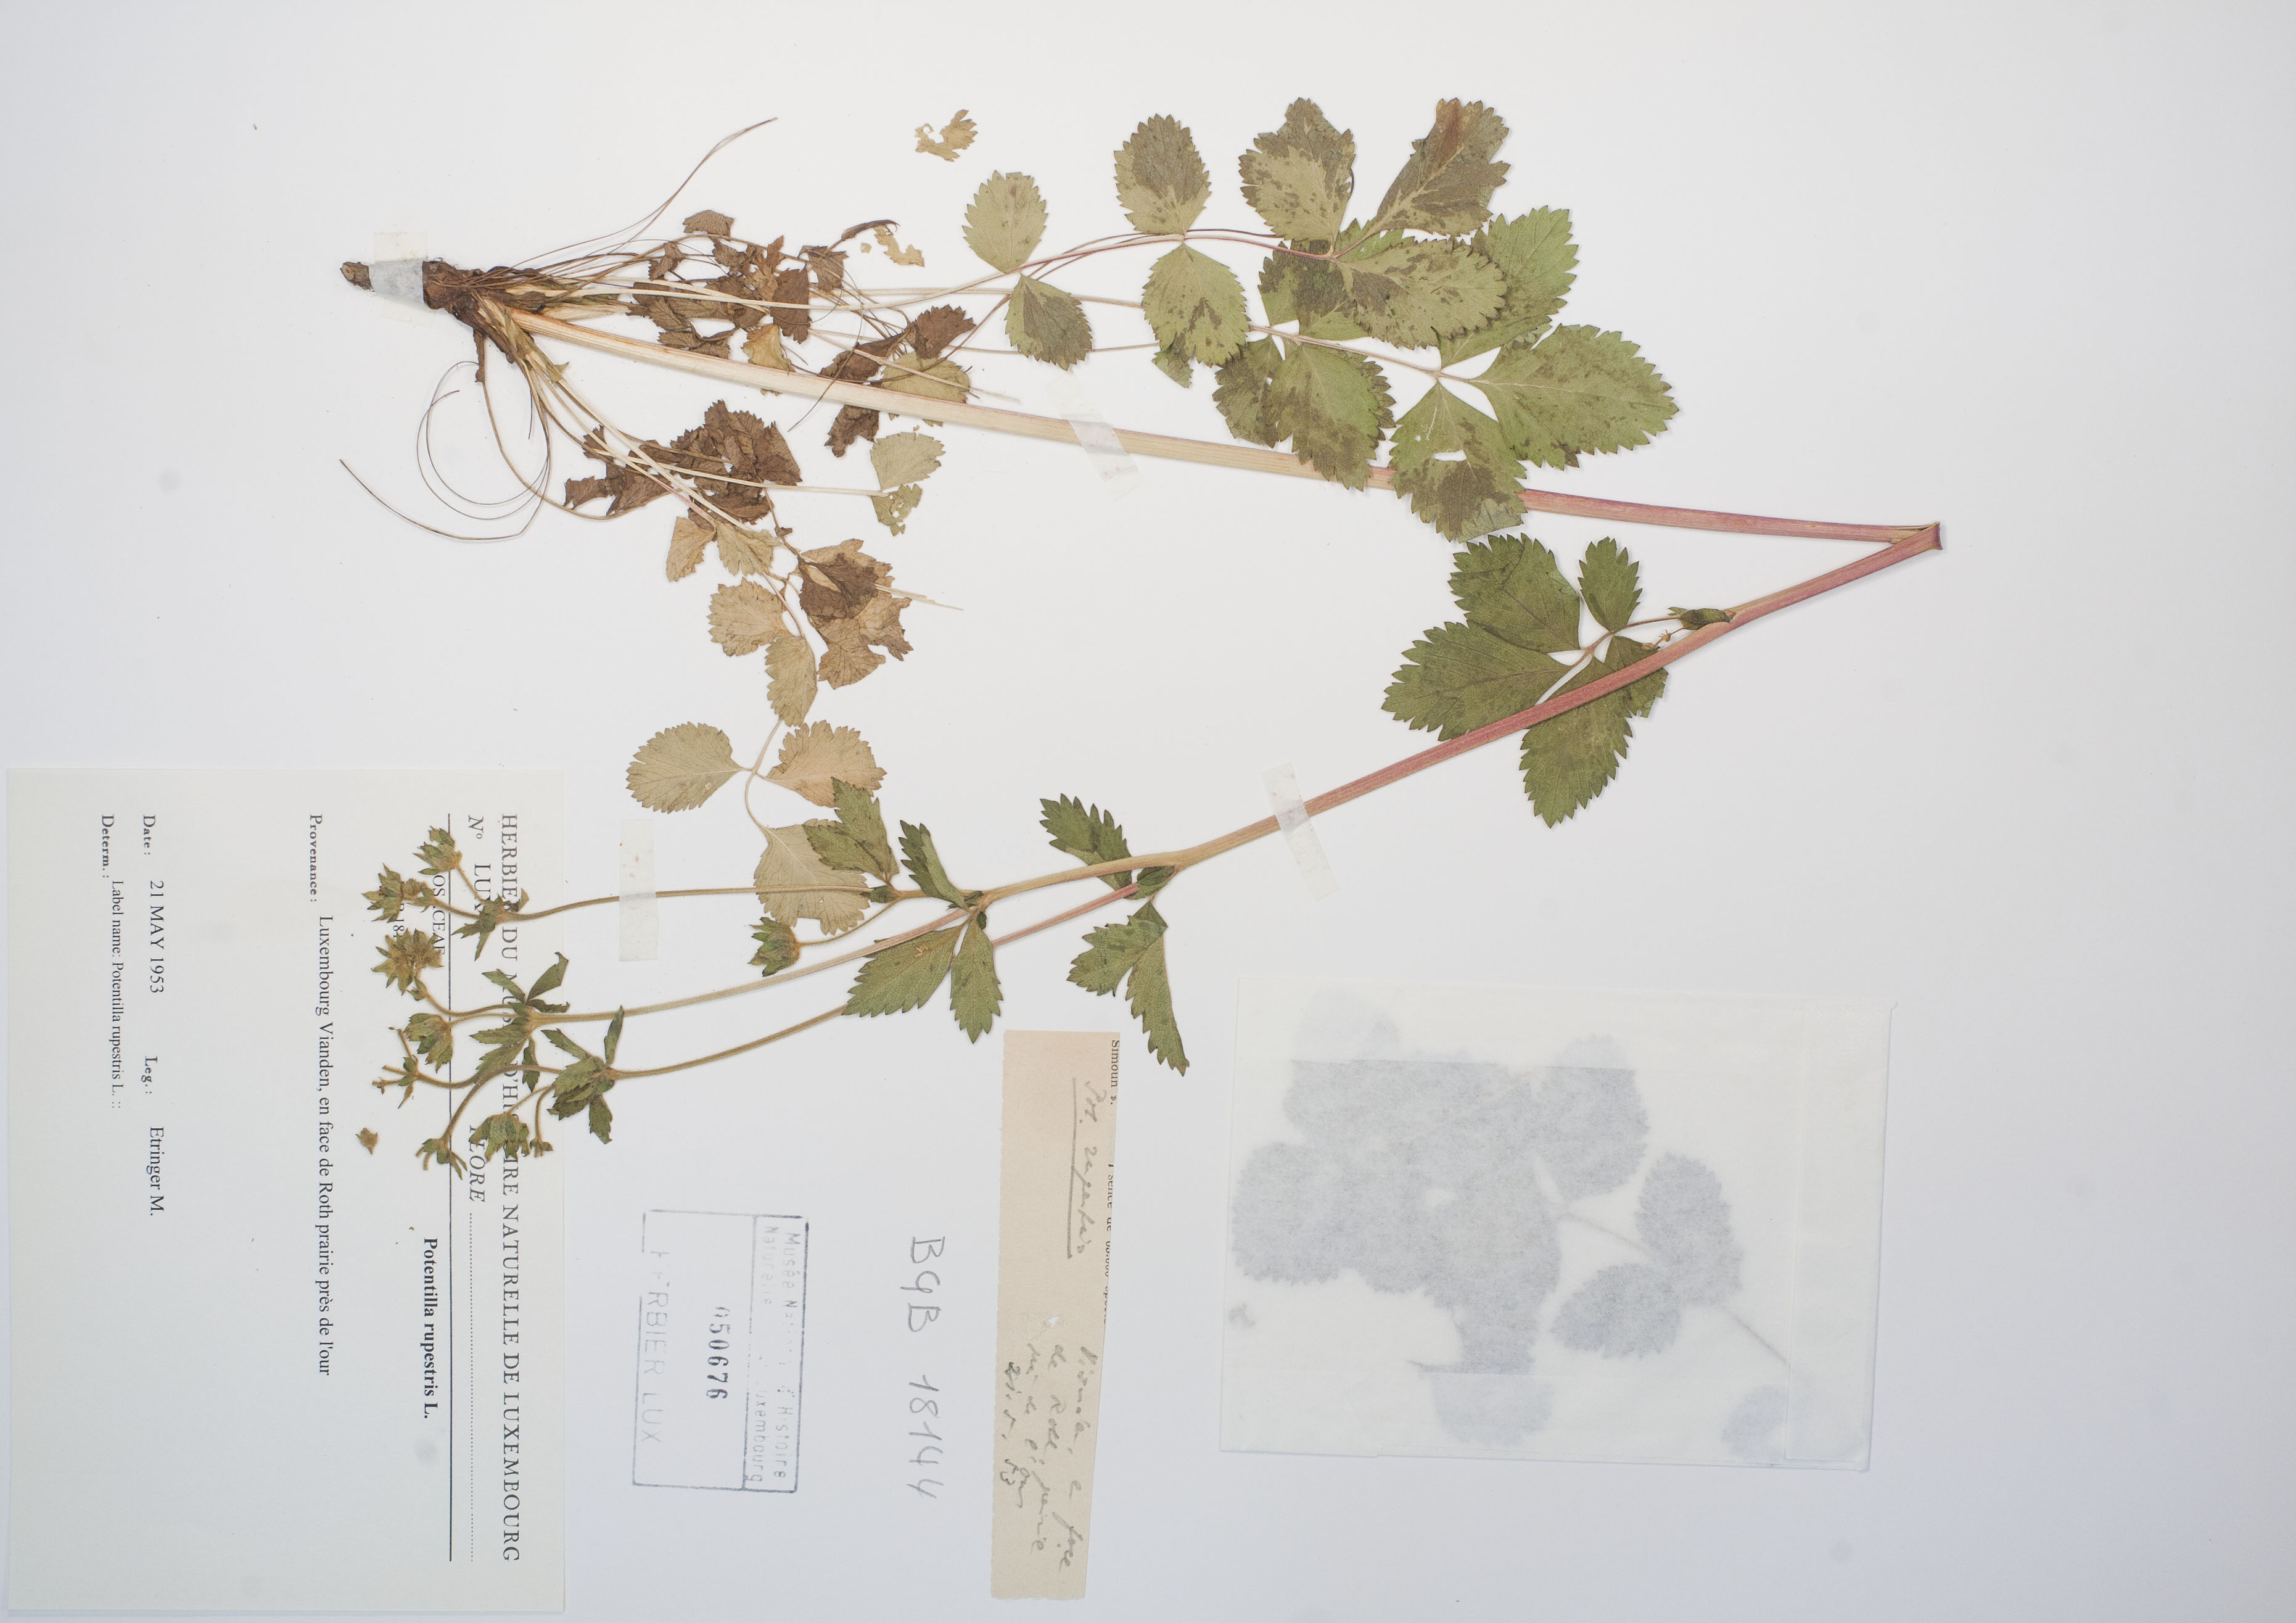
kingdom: Plantae
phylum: Tracheophyta
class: Magnoliopsida
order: Rosales
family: Rosaceae
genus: Drymocallis
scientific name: Drymocallis rupestris
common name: Rock cinquefoil
